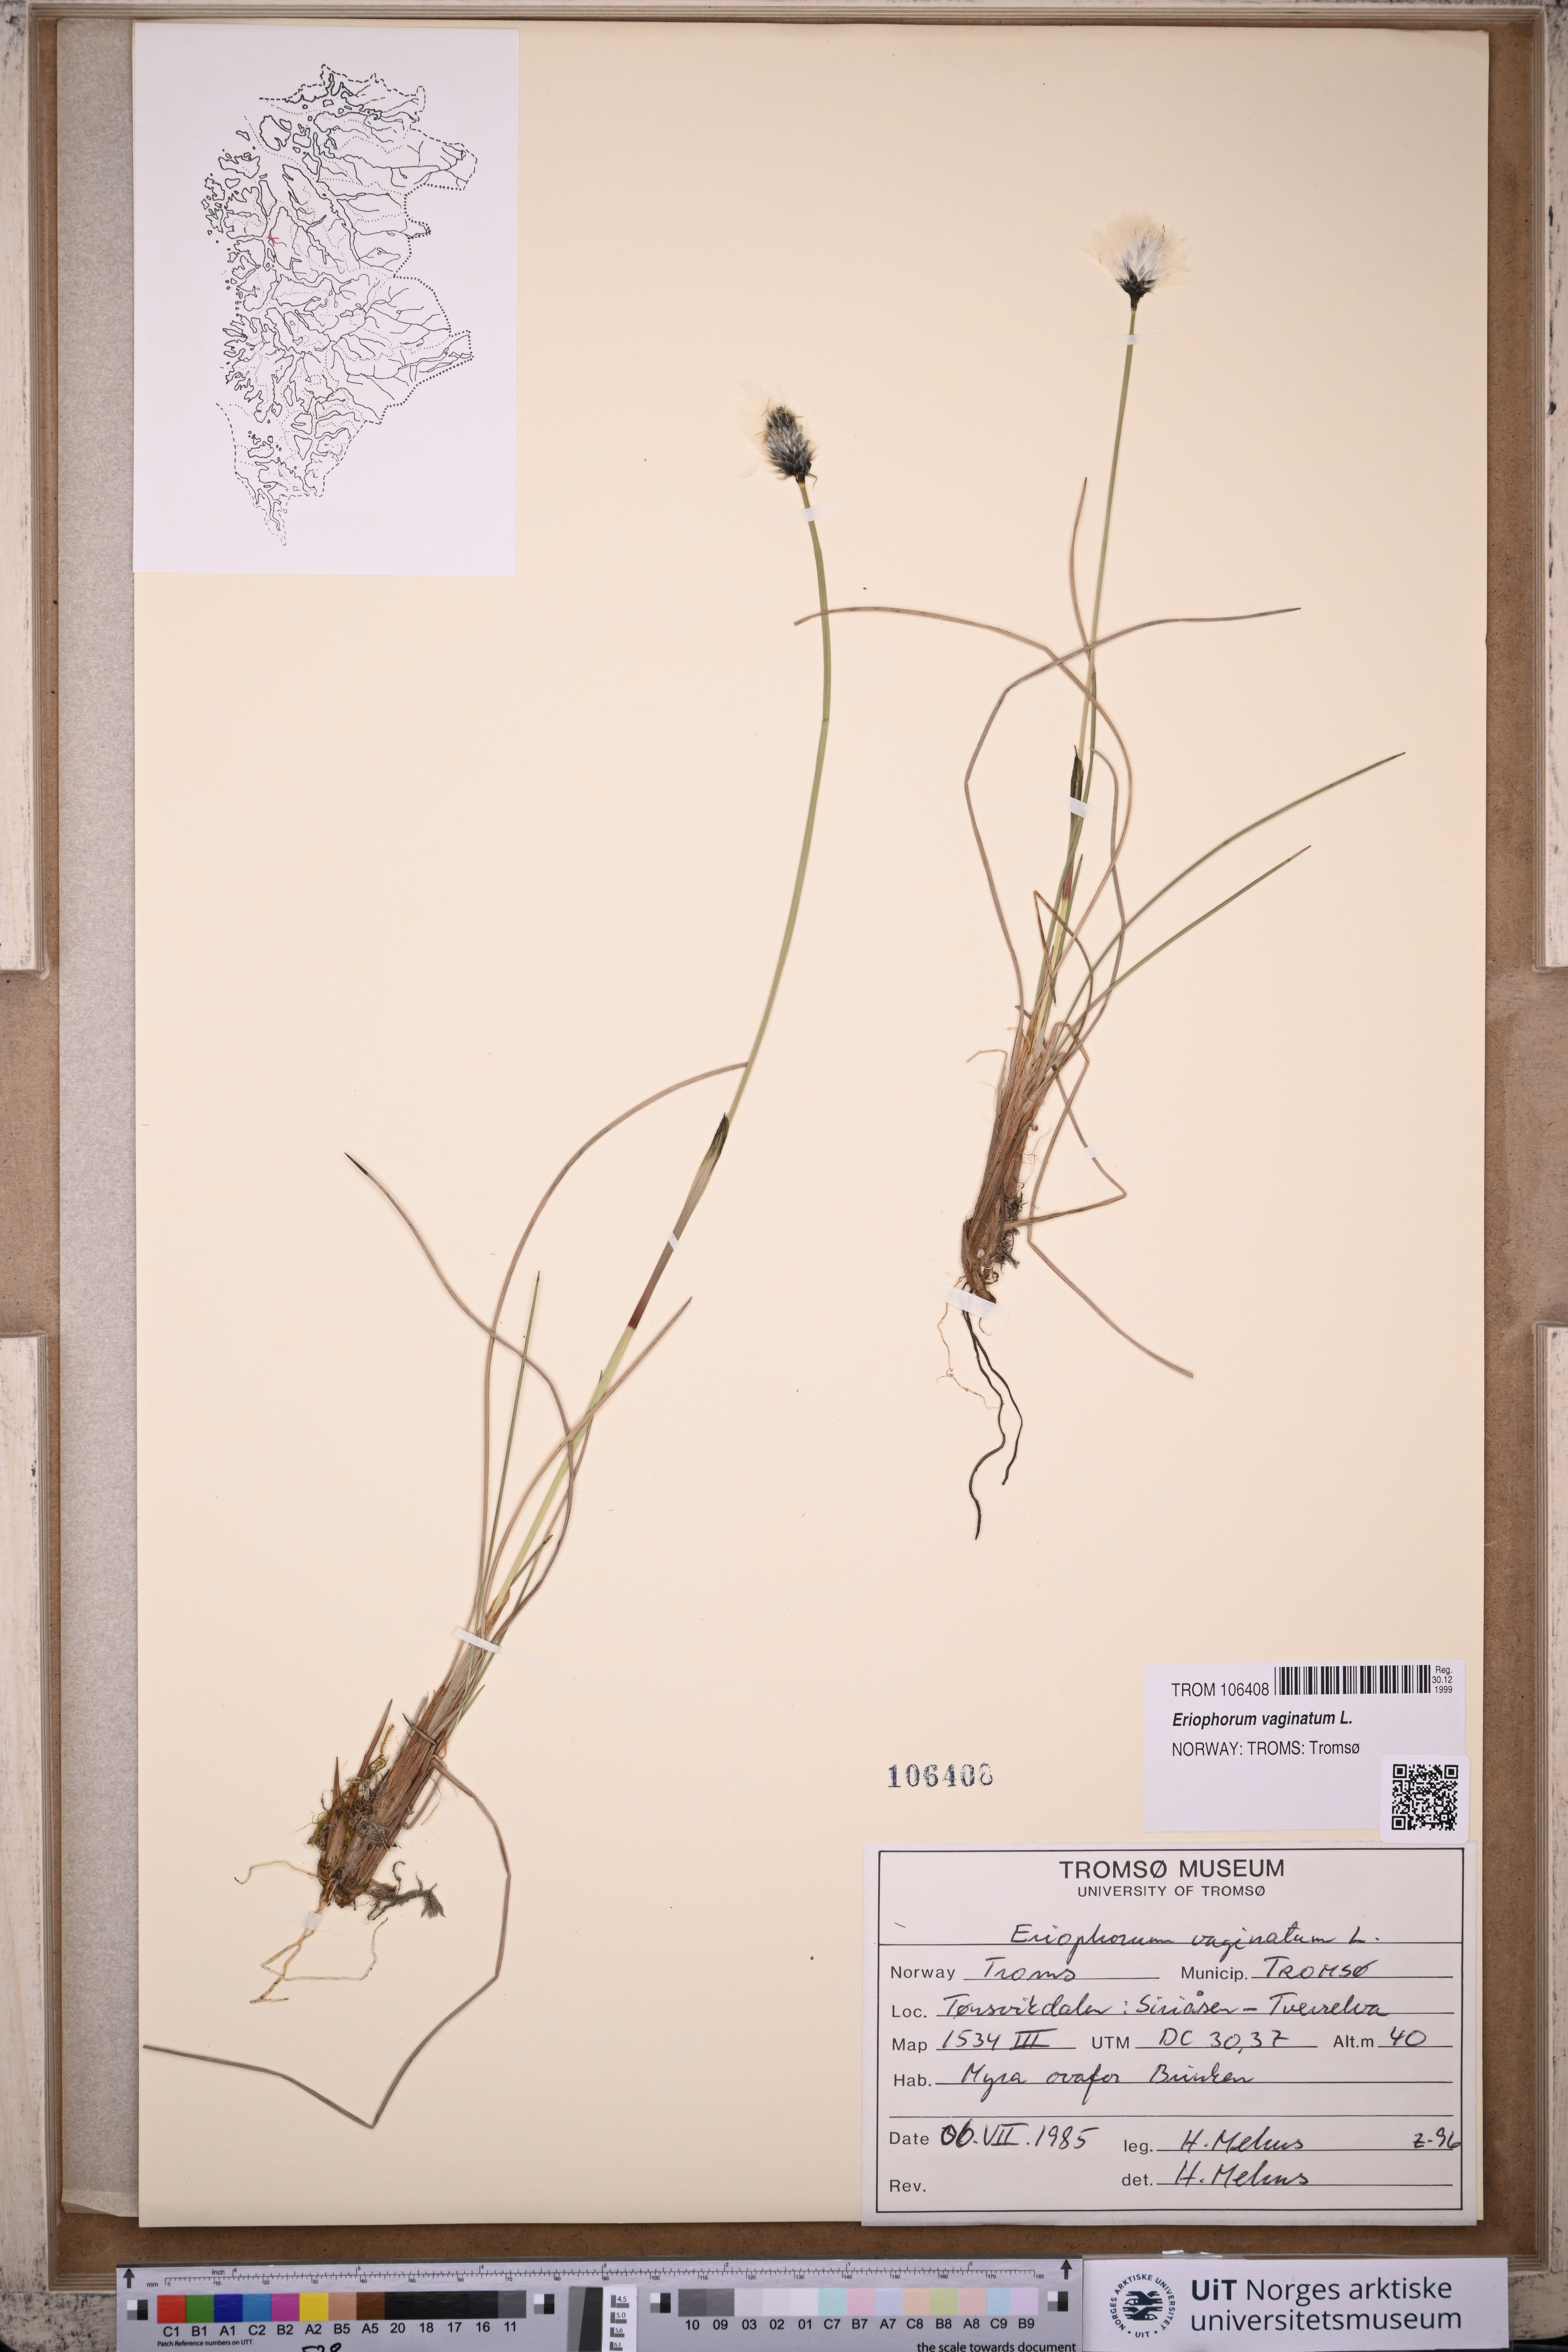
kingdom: Plantae
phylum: Tracheophyta
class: Liliopsida
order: Poales
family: Cyperaceae
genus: Eriophorum
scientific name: Eriophorum vaginatum
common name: Hare's-tail cottongrass
